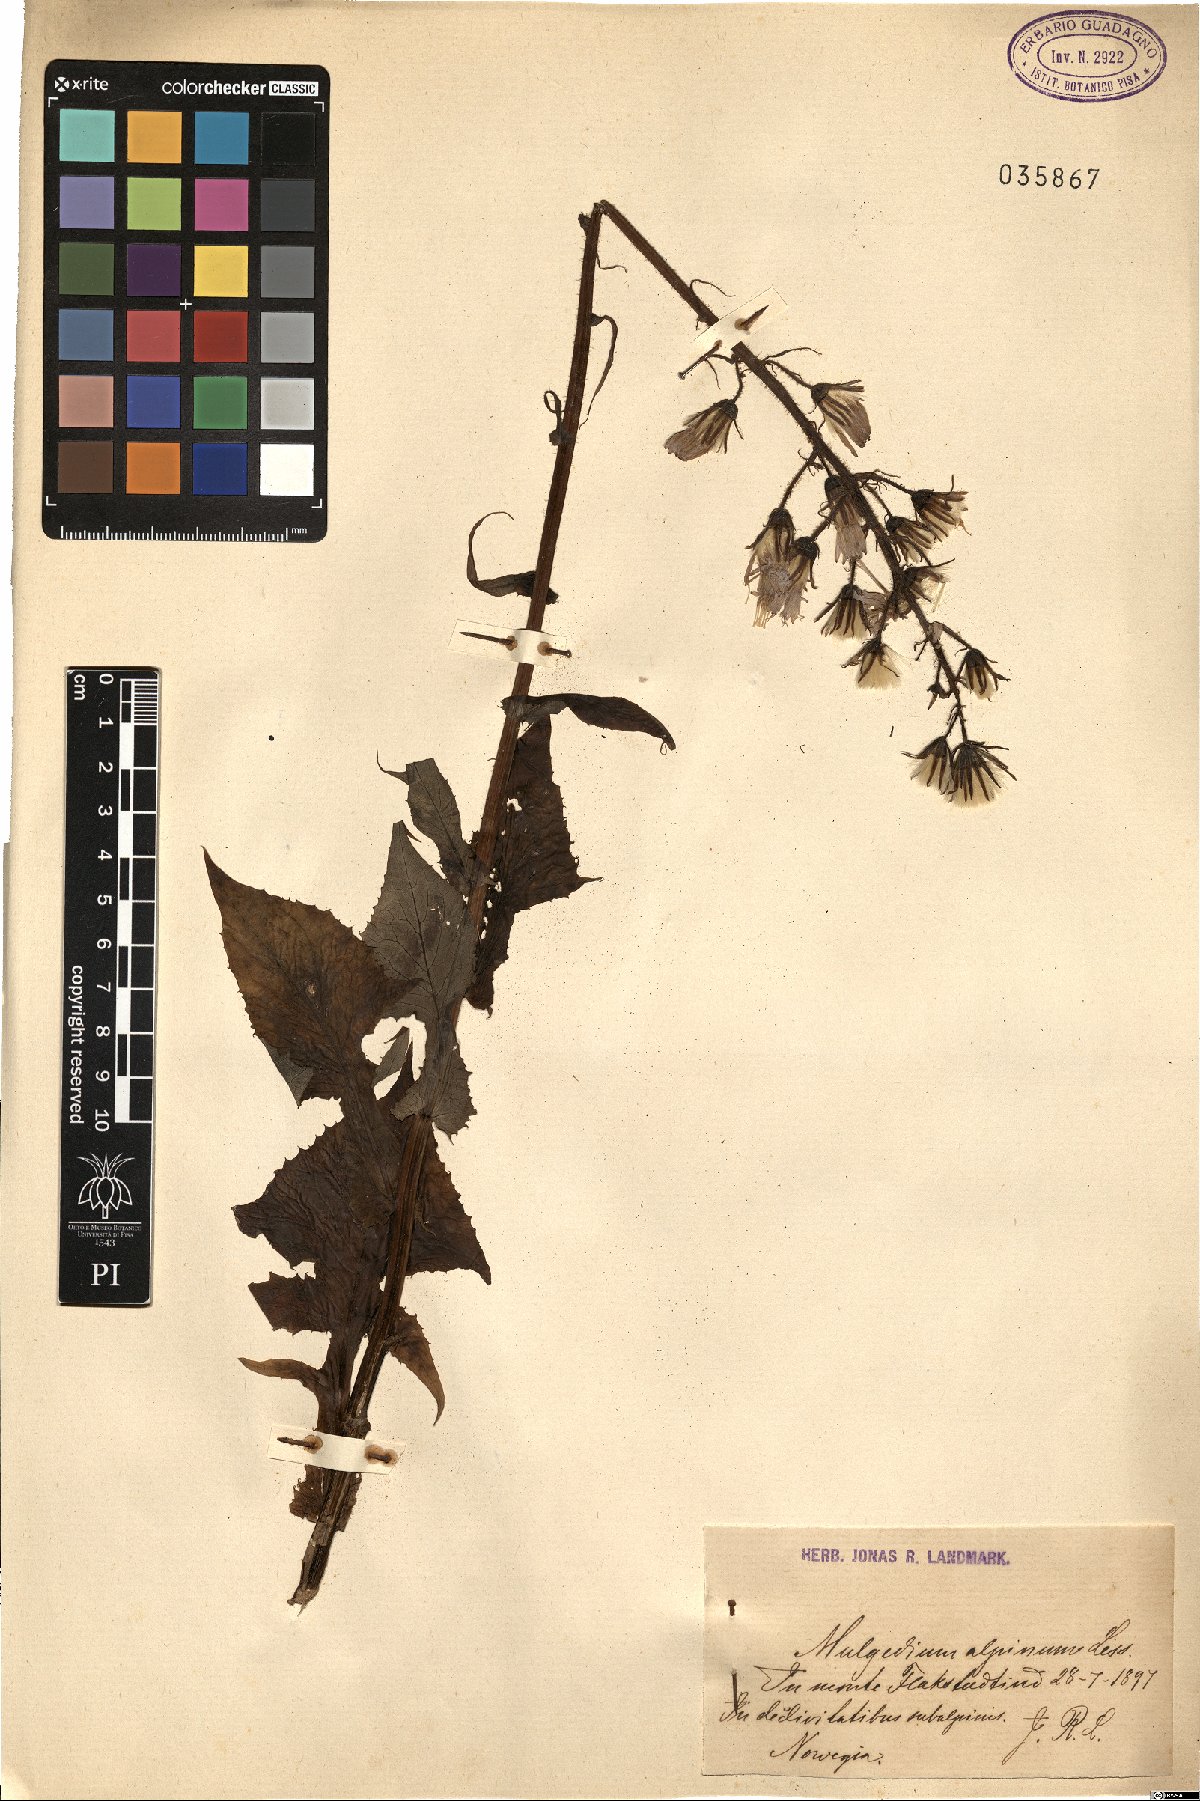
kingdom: Plantae
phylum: Tracheophyta
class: Magnoliopsida
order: Asterales
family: Asteraceae
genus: Cicerbita
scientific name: Cicerbita alpina
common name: Alpine blue-sow-thistle
